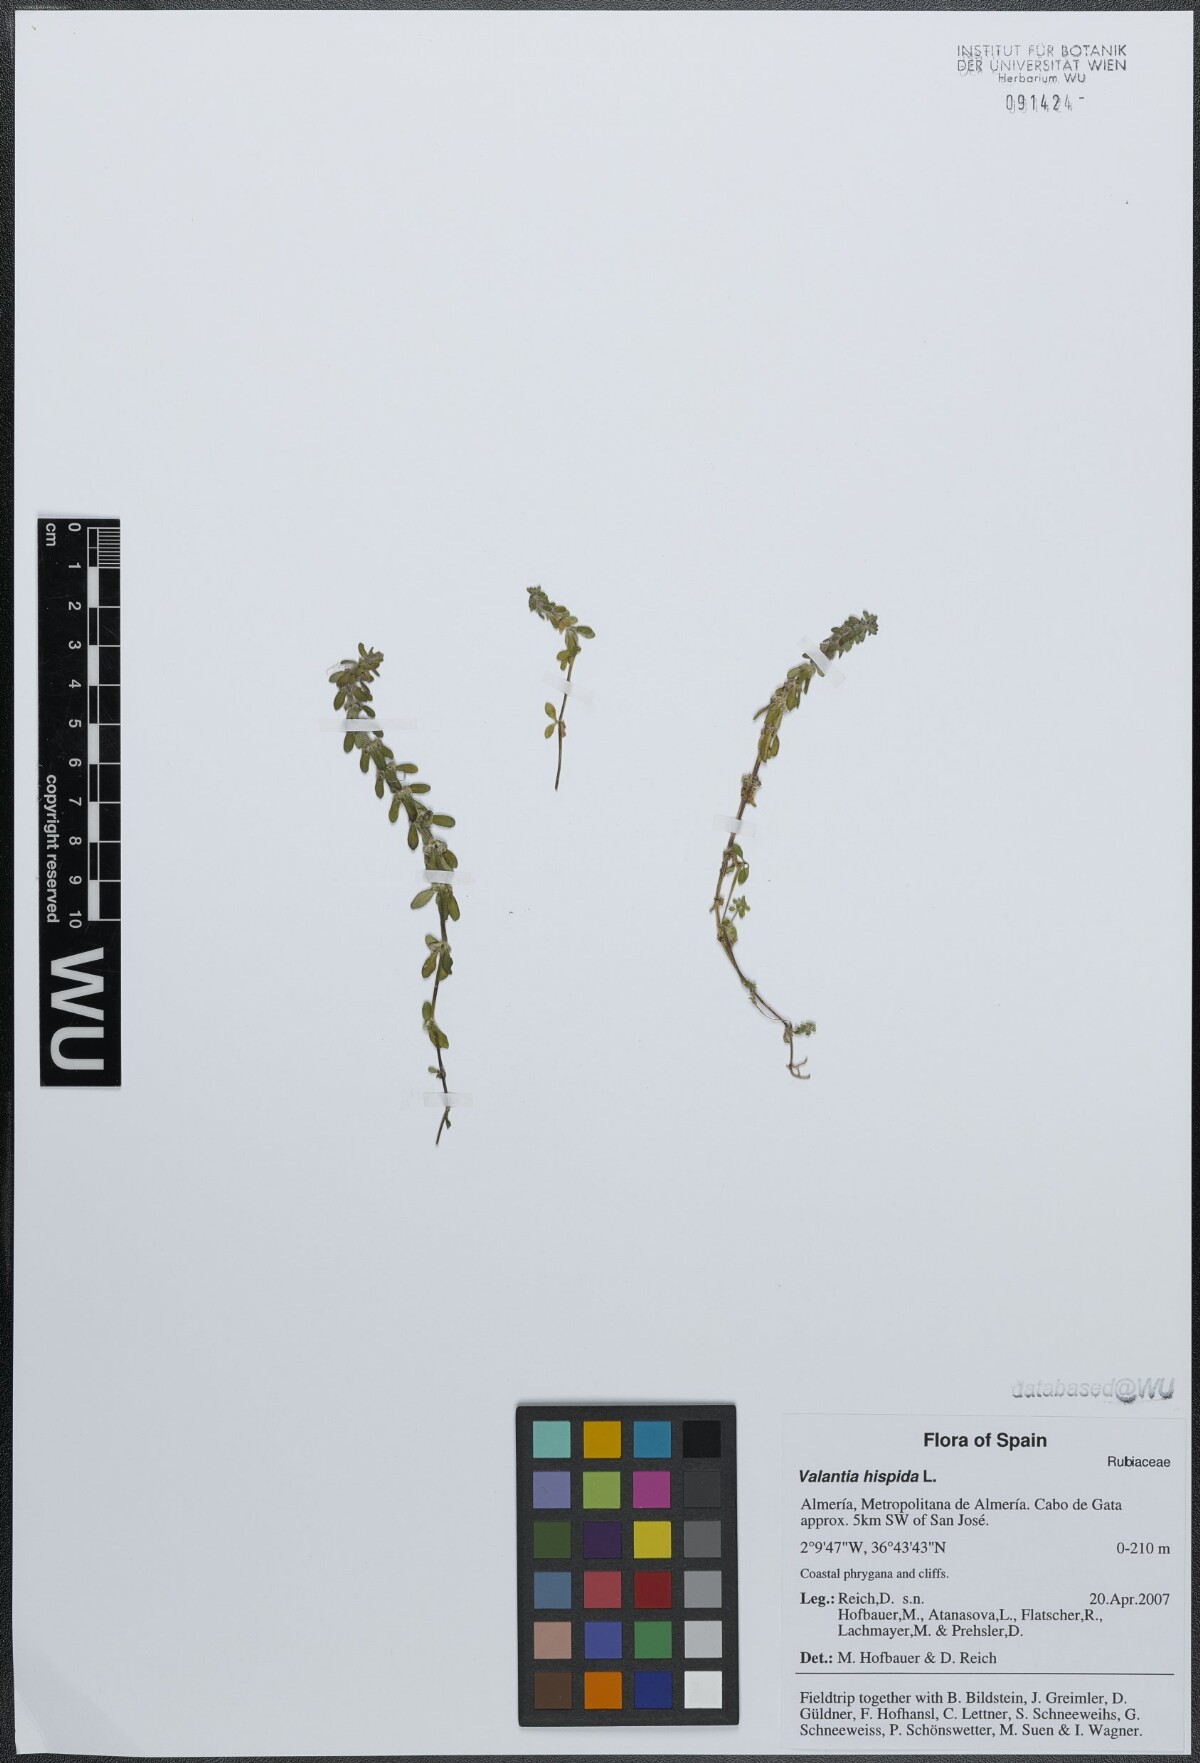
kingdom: Plantae
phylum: Tracheophyta
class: Magnoliopsida
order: Gentianales
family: Rubiaceae
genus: Valantia
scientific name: Valantia hispida
